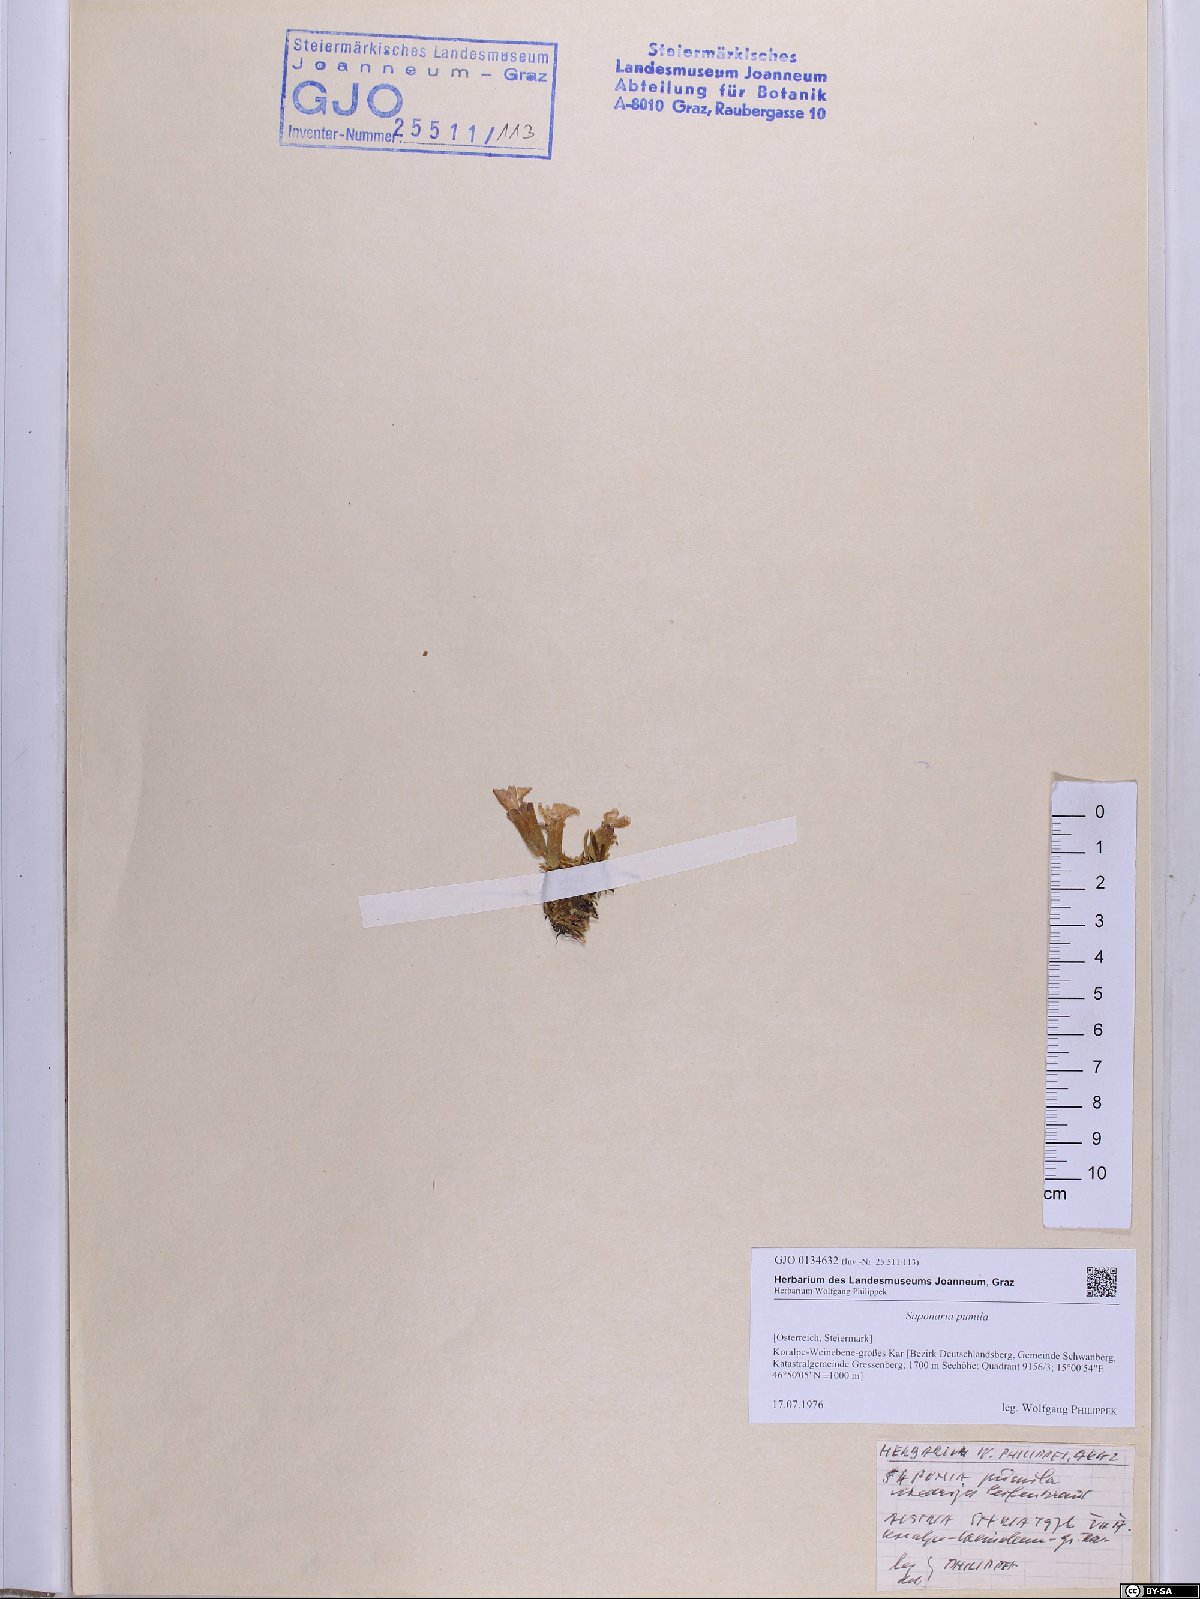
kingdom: Plantae
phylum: Tracheophyta
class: Magnoliopsida
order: Caryophyllales
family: Caryophyllaceae
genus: Saponaria
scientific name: Saponaria pumila
